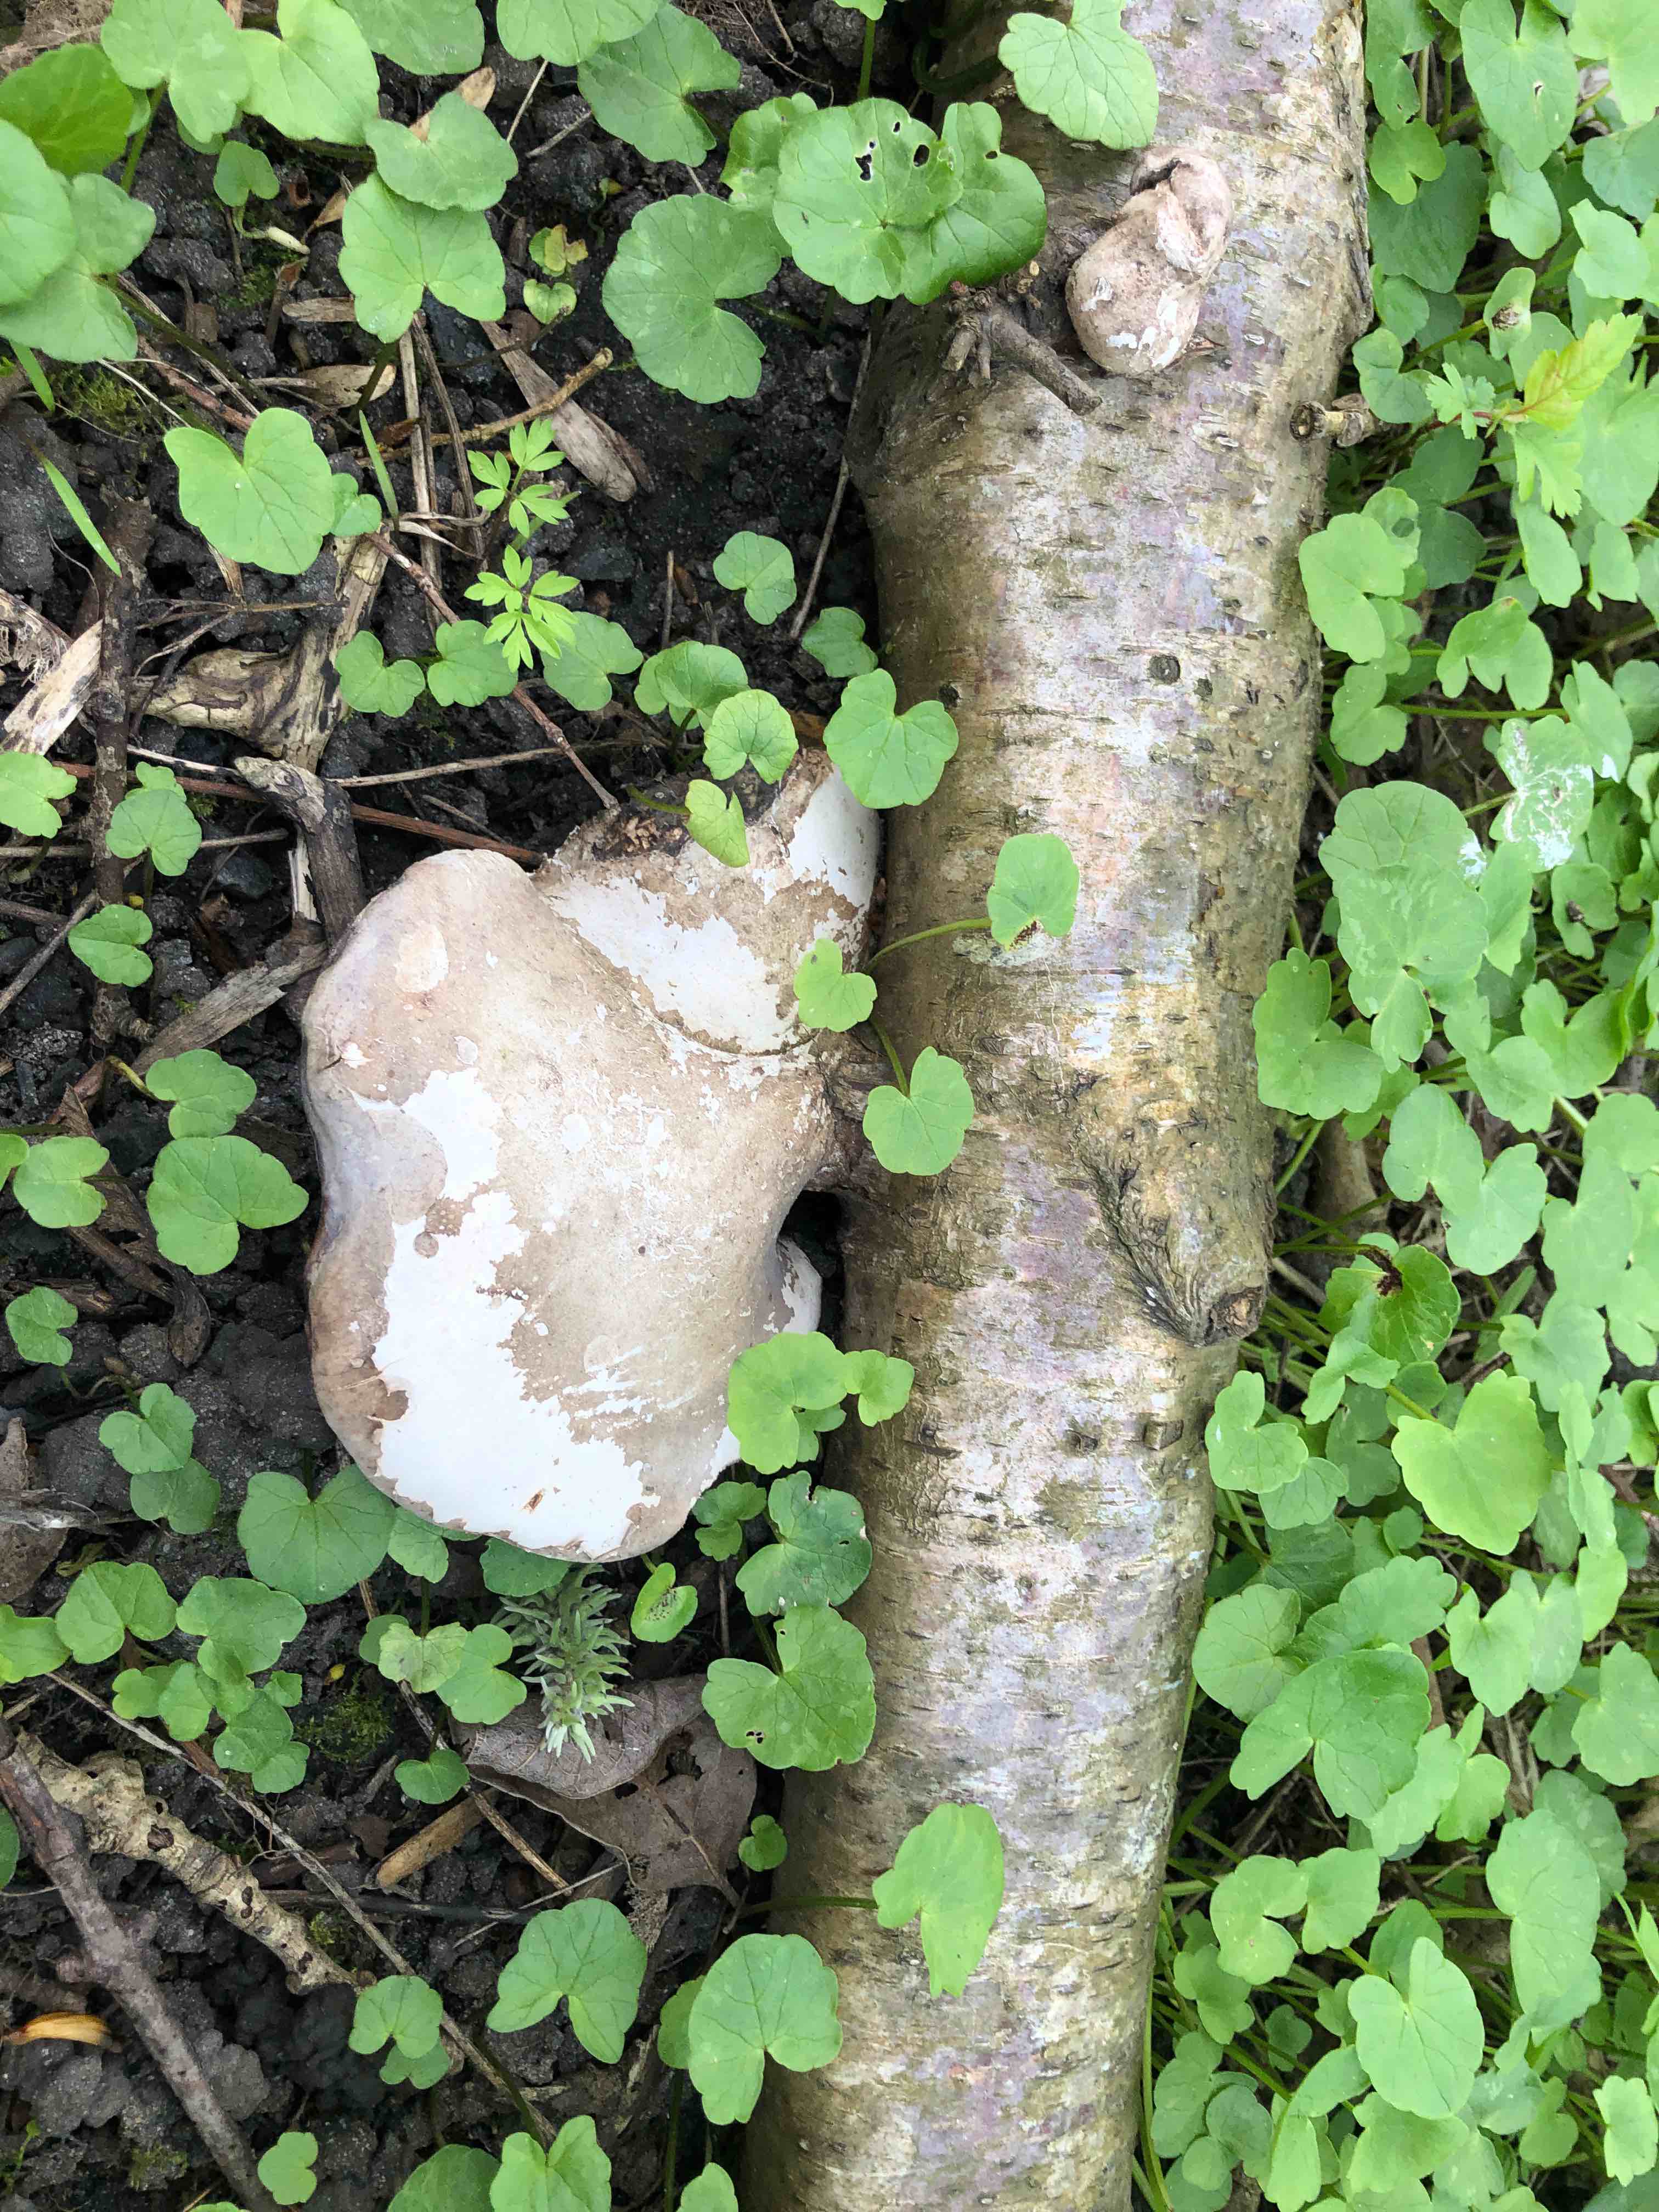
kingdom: Fungi
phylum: Basidiomycota
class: Agaricomycetes
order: Polyporales
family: Fomitopsidaceae
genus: Fomitopsis
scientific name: Fomitopsis betulina
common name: birkeporesvamp
